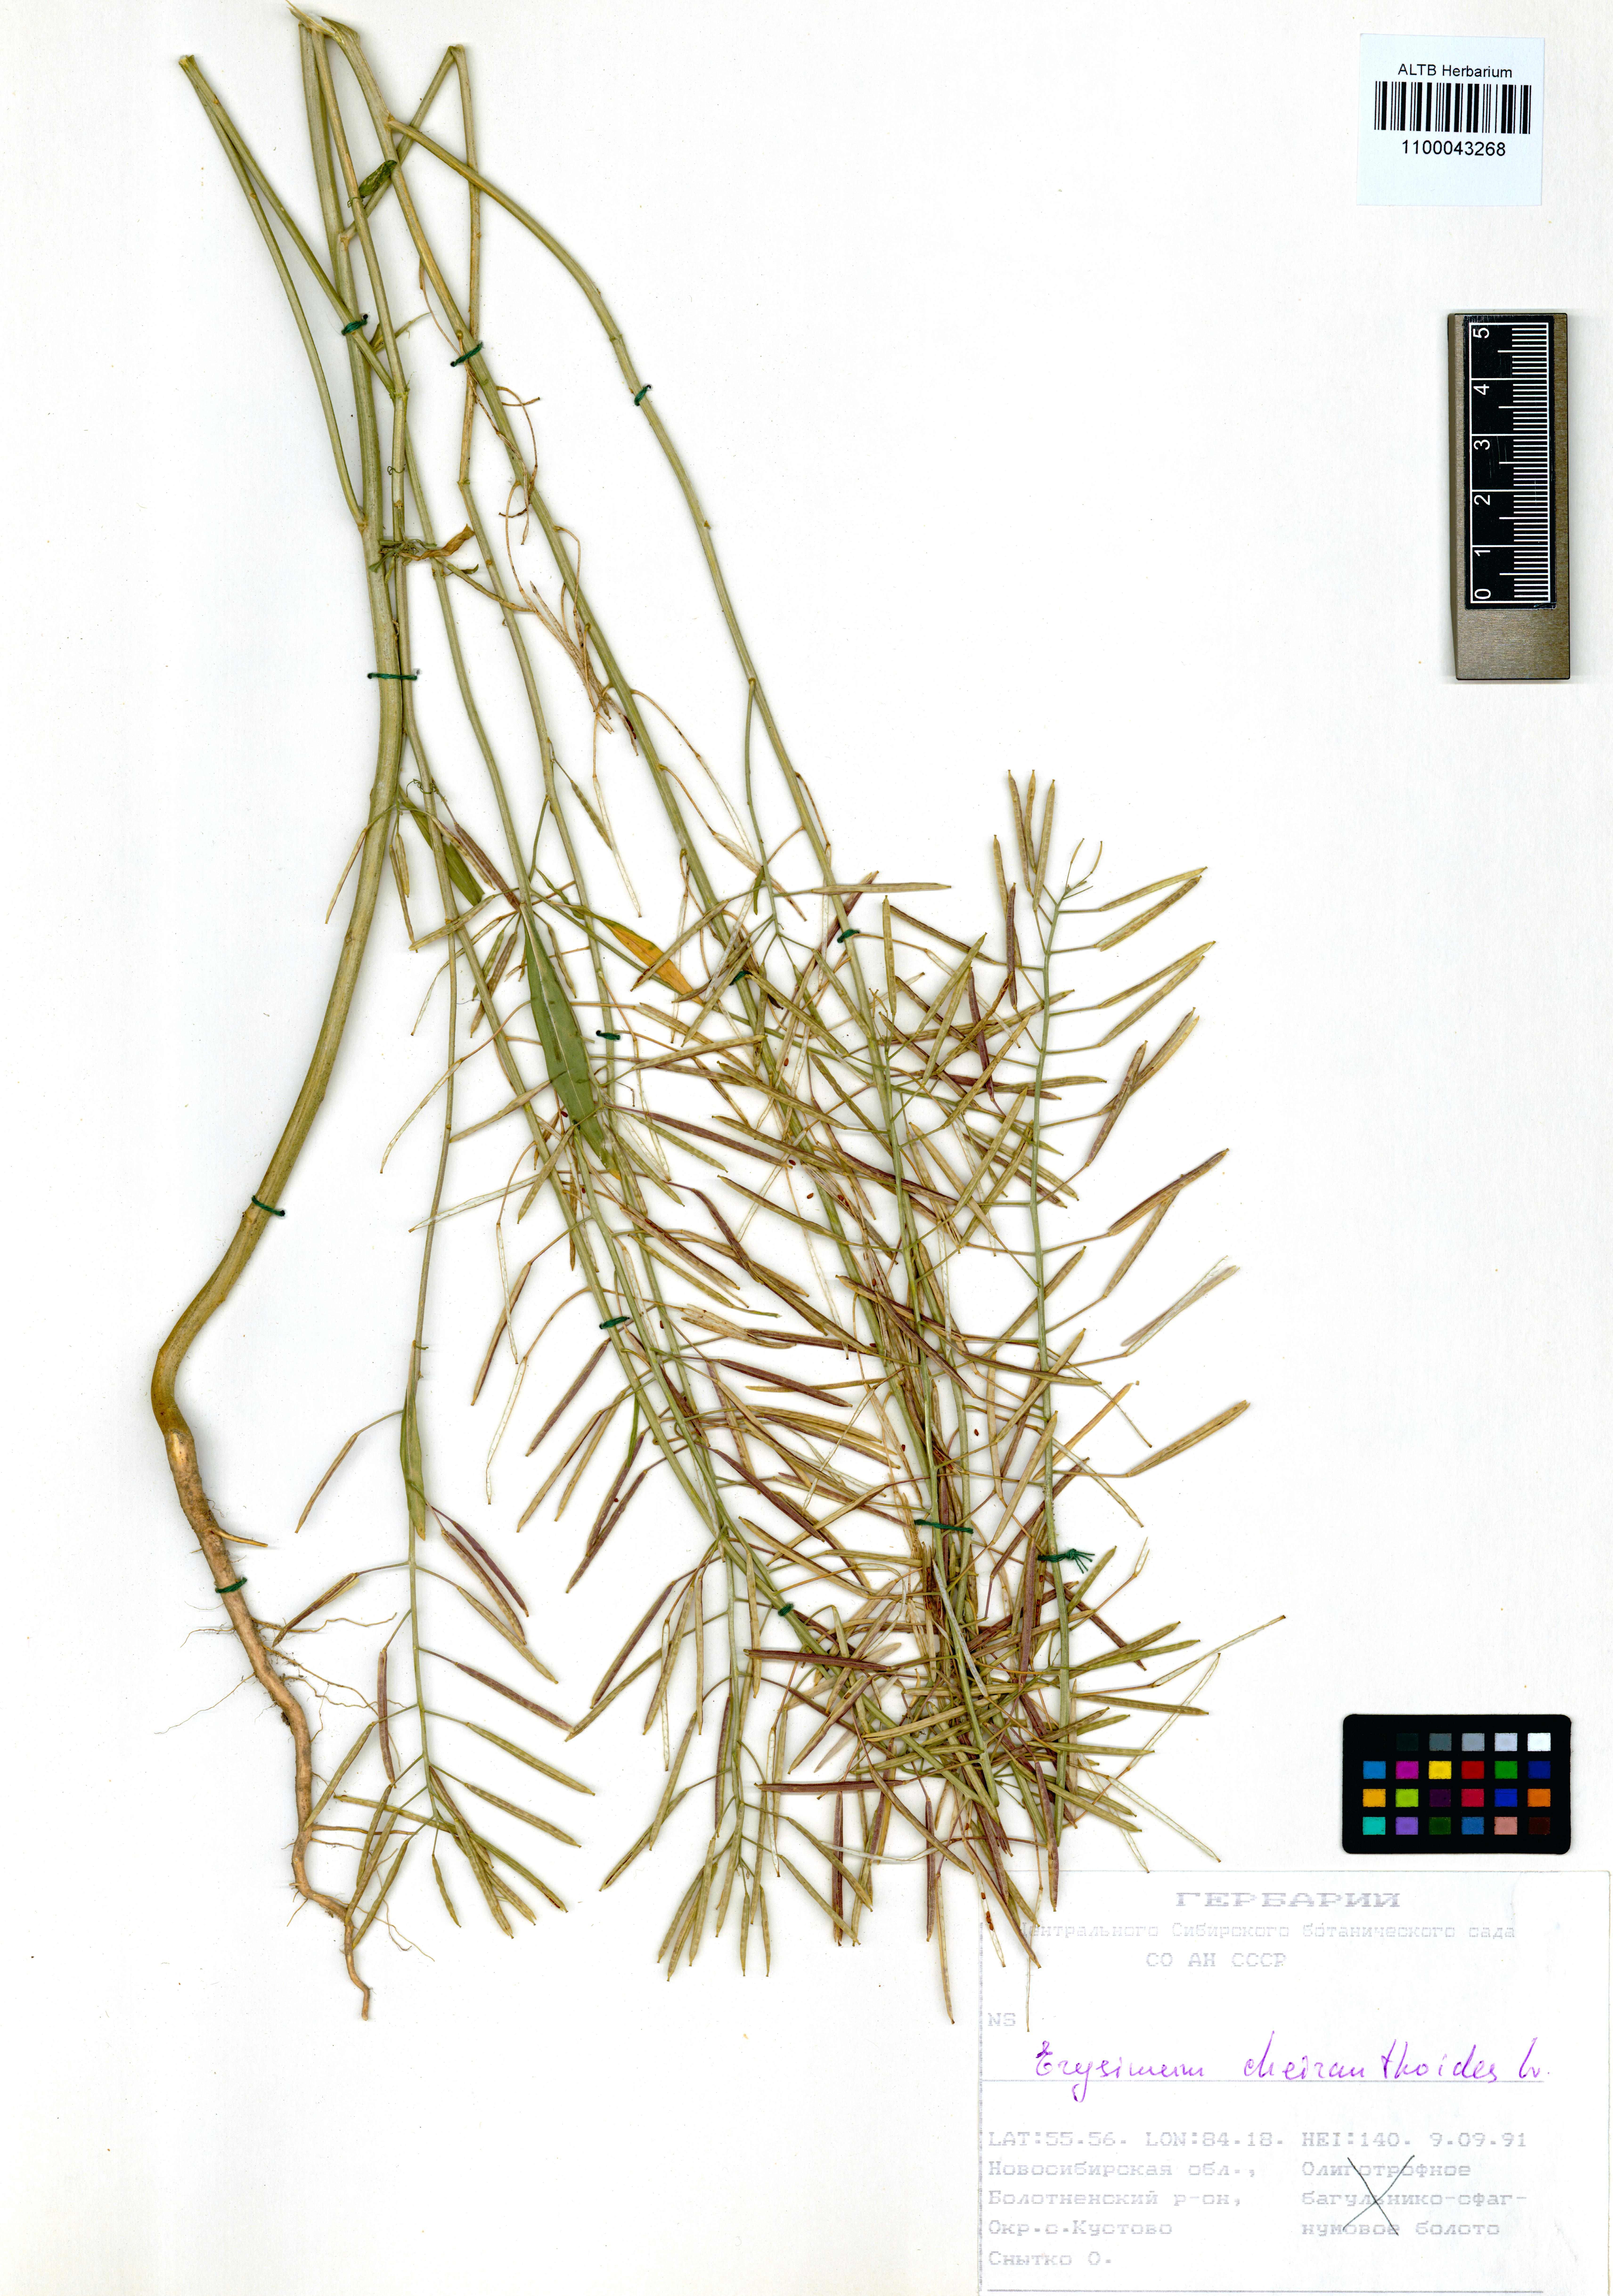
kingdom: Plantae
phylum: Tracheophyta
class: Magnoliopsida
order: Brassicales
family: Brassicaceae
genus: Erysimum
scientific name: Erysimum cheiranthoides
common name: Treacle mustard
